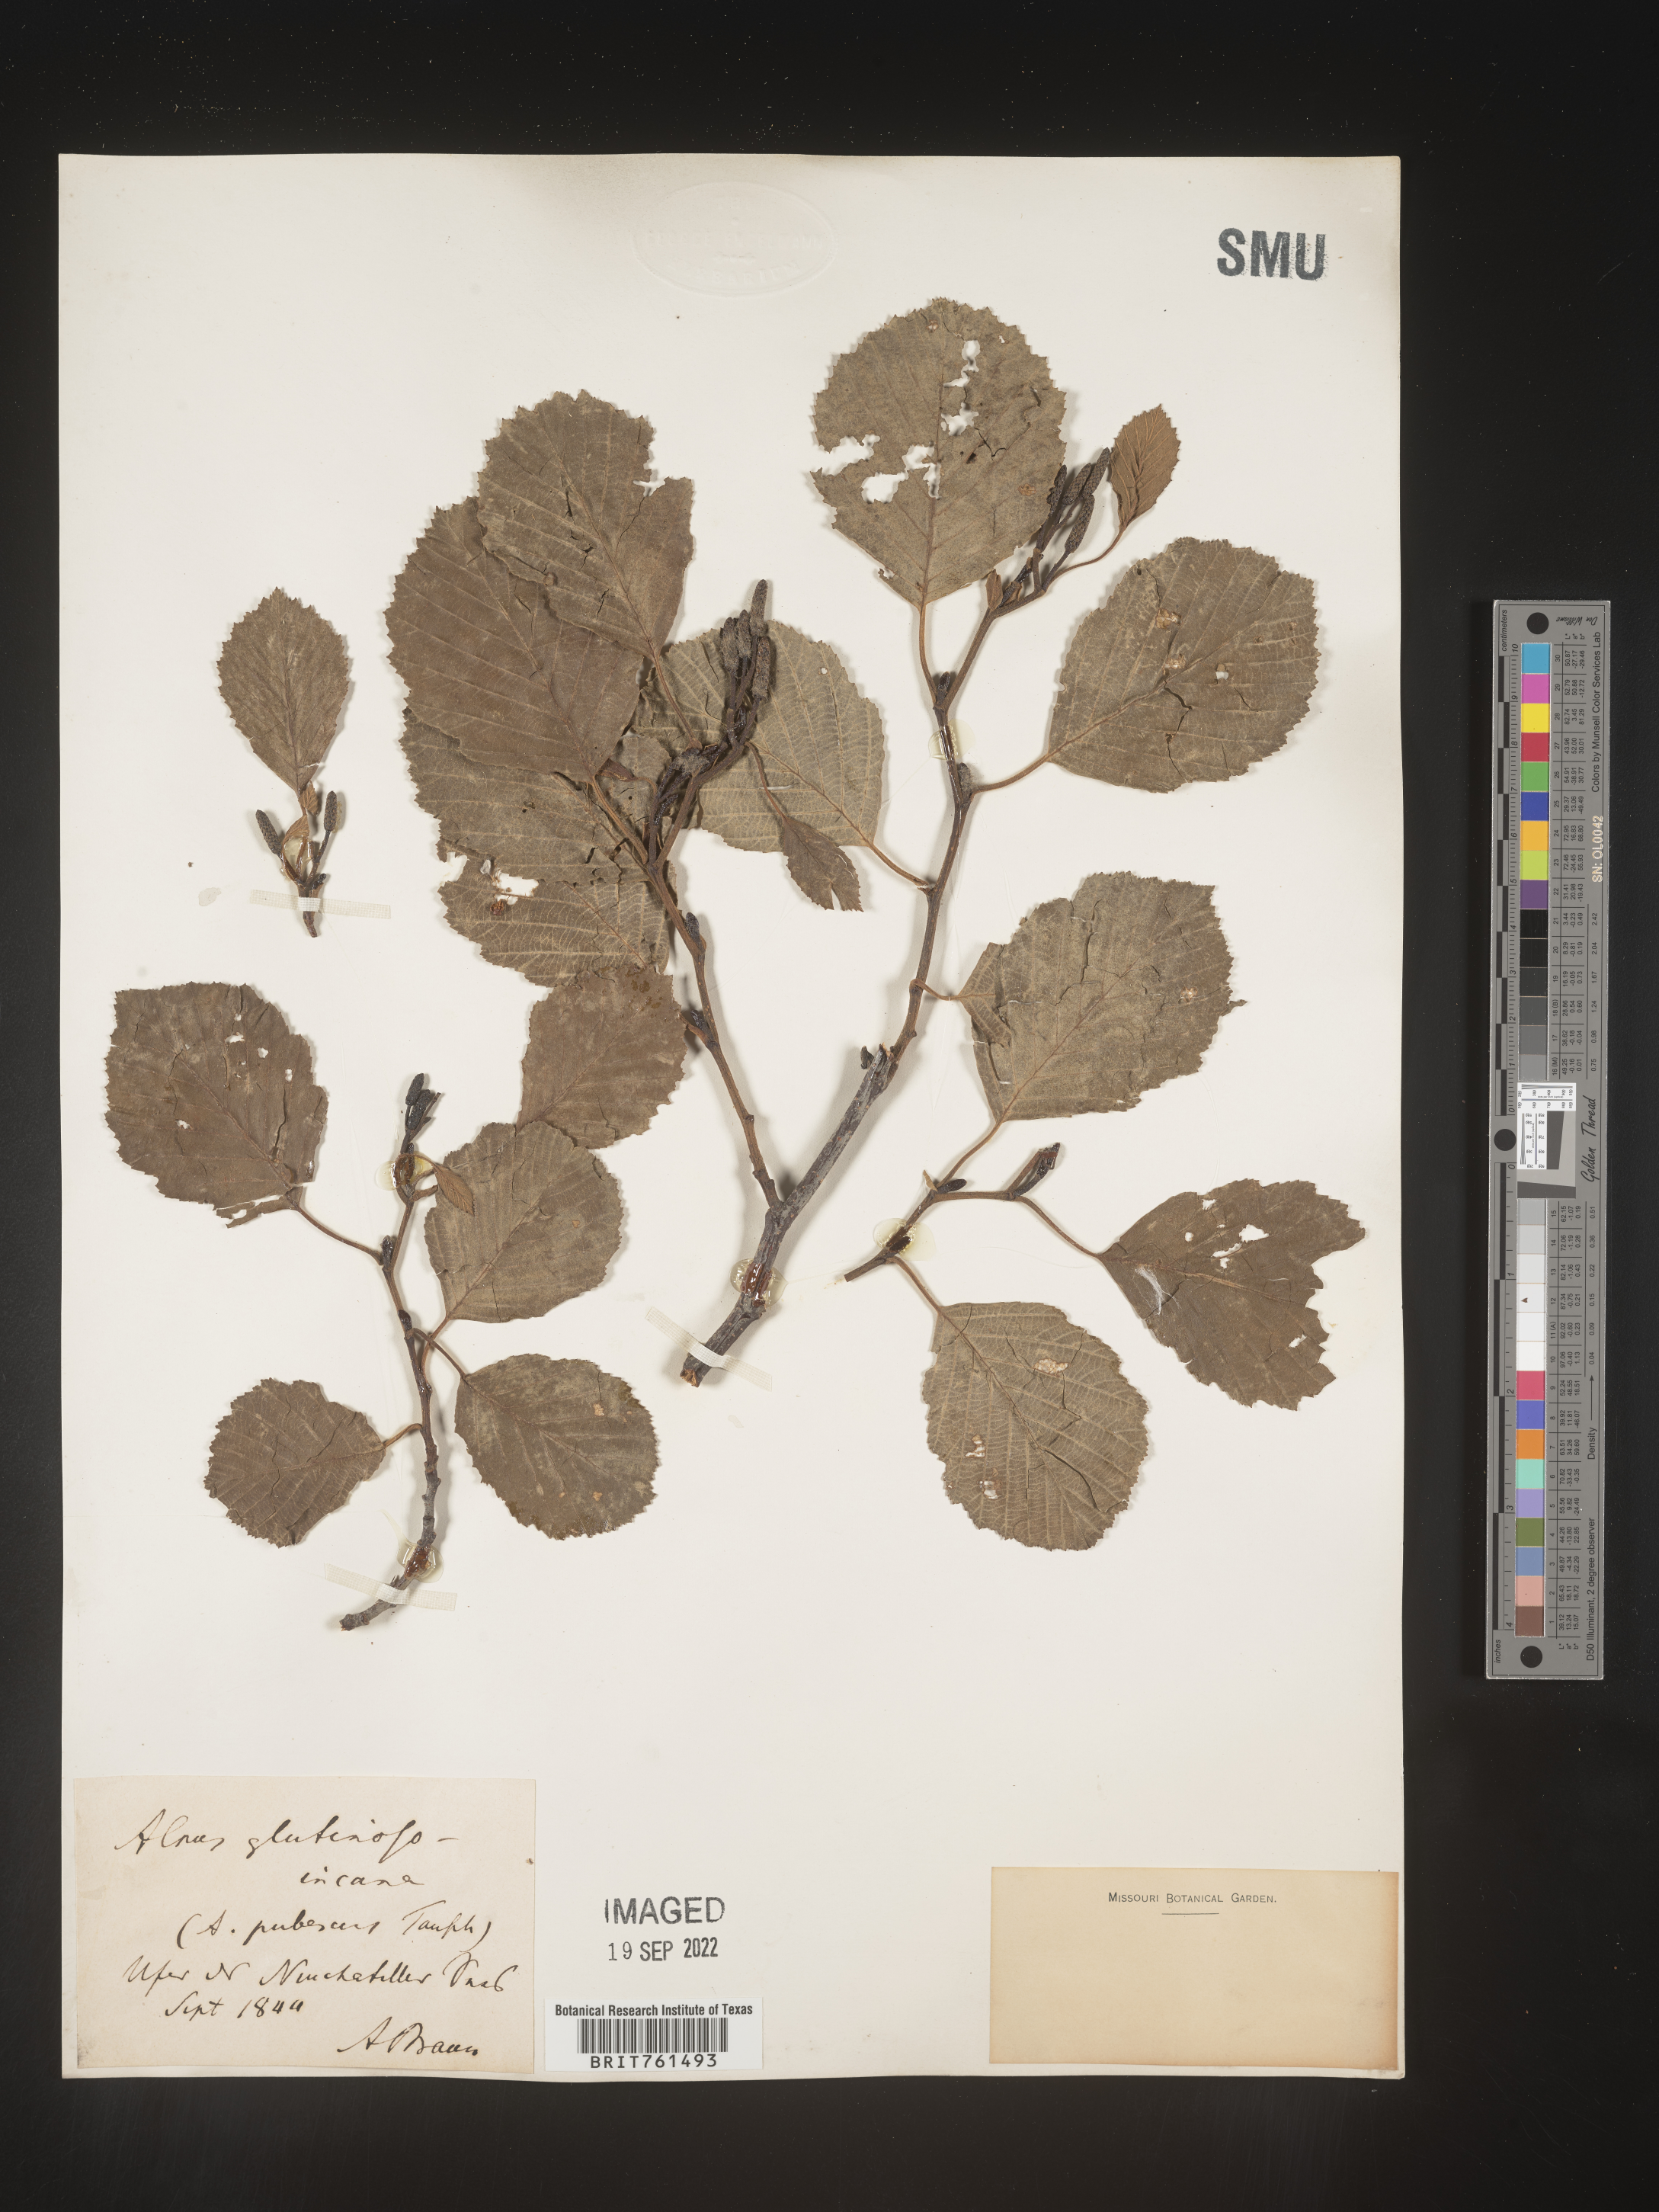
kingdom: Plantae
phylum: Tracheophyta
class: Magnoliopsida
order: Fagales
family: Betulaceae
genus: Alnus
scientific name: Alnus
